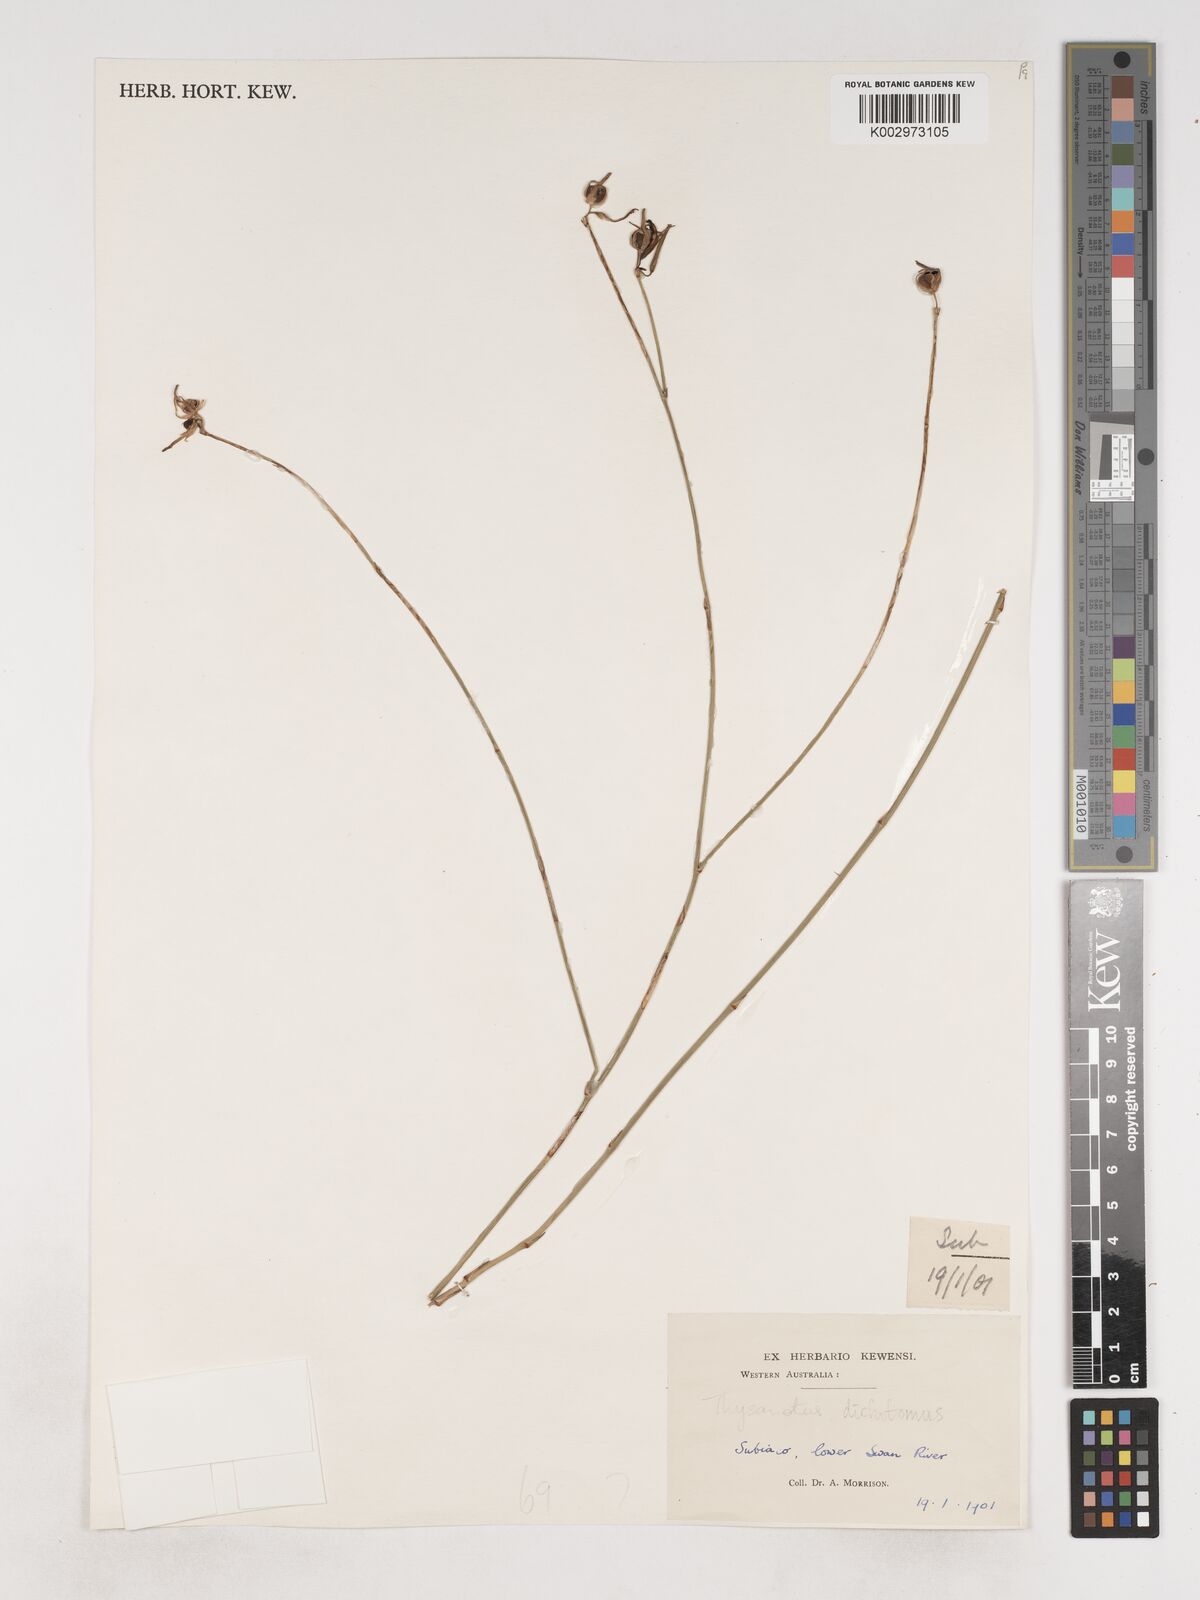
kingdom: Plantae
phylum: Tracheophyta
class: Liliopsida
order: Asparagales
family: Asparagaceae
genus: Thysanotus
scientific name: Thysanotus dichotomus
